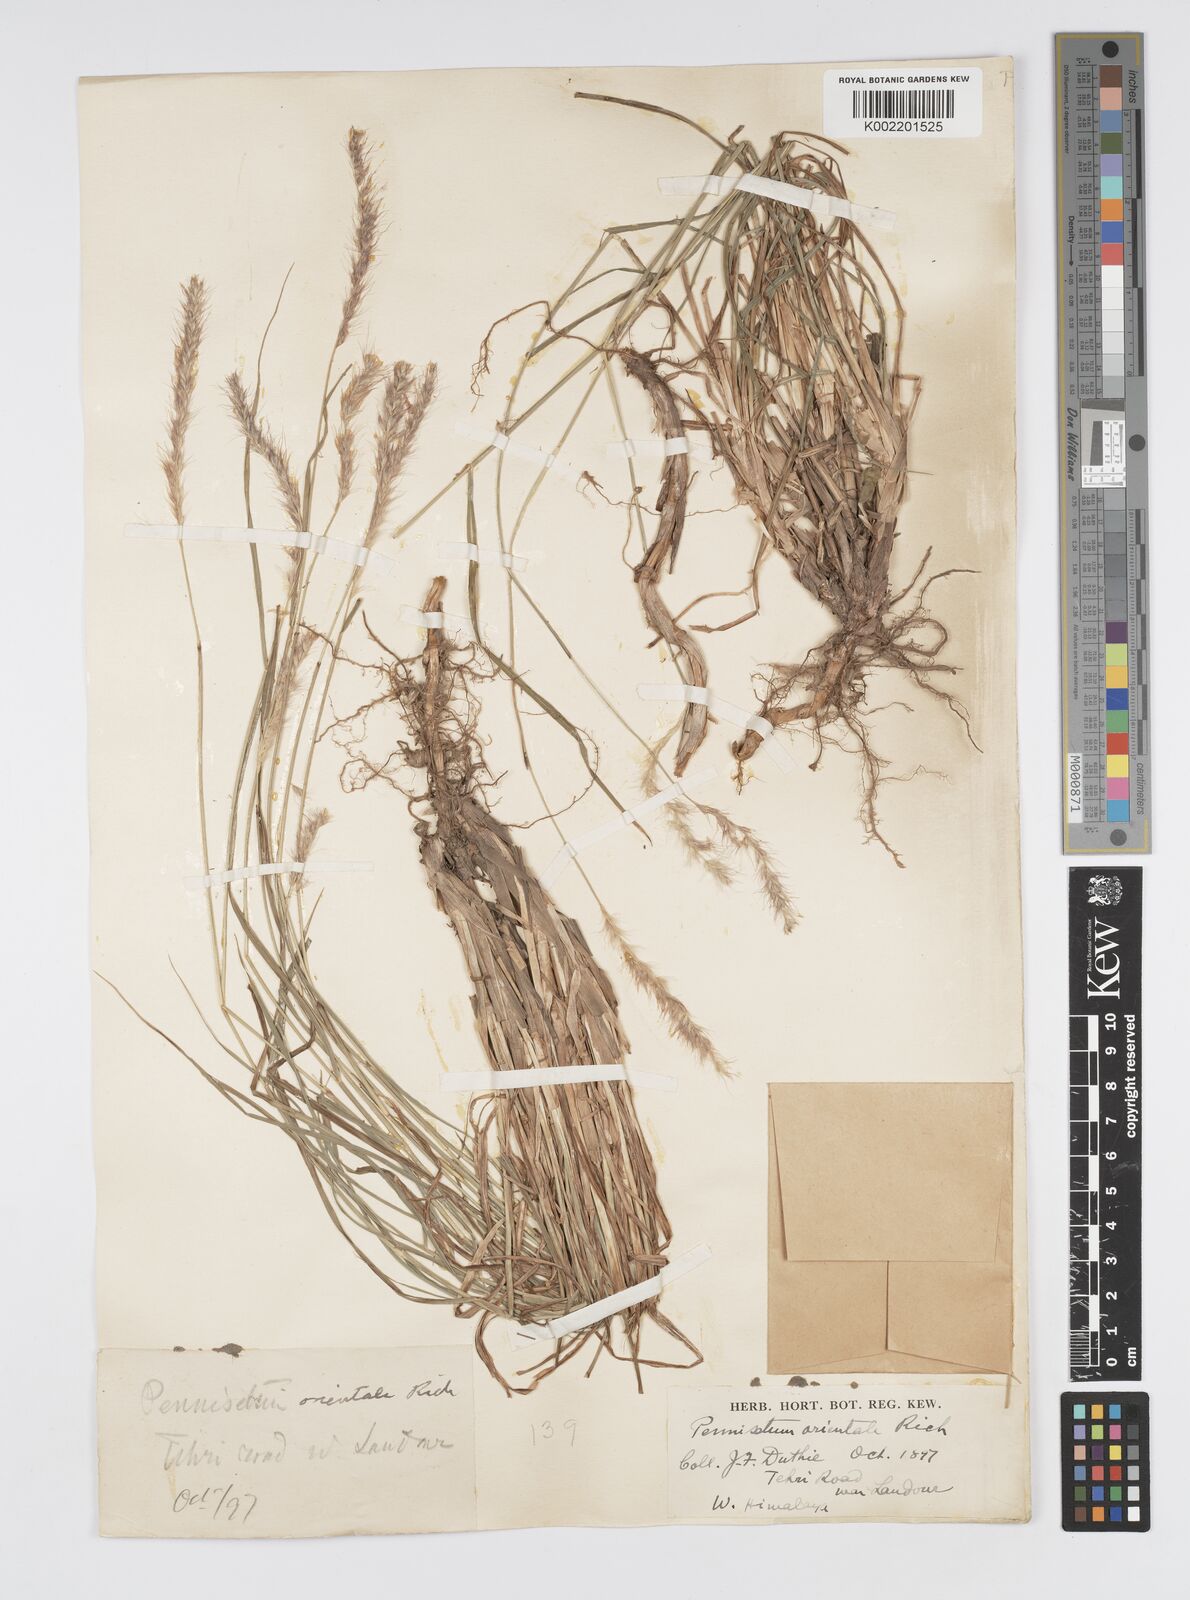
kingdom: Plantae
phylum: Tracheophyta
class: Liliopsida
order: Poales
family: Poaceae
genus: Cenchrus
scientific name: Cenchrus orientalis
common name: Oriental fountain grass
